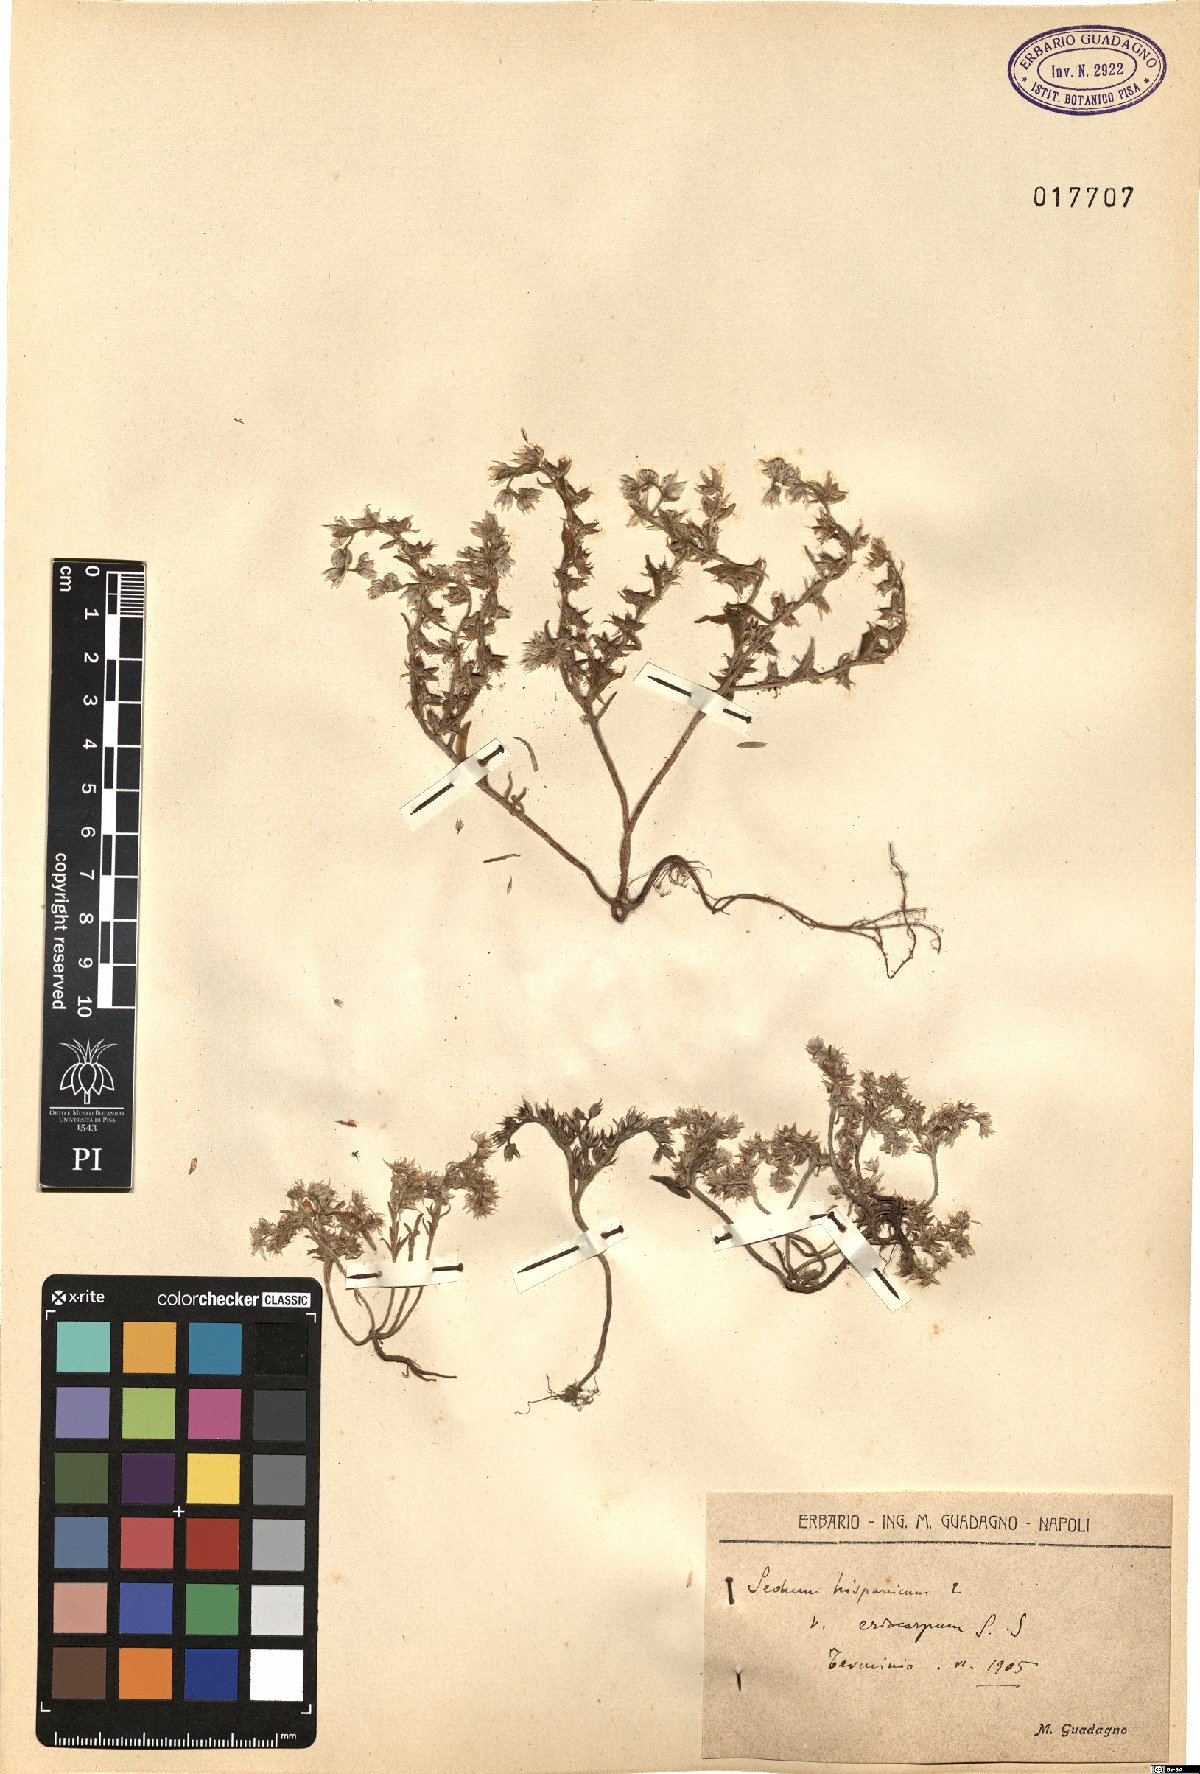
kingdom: Plantae
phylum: Tracheophyta
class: Magnoliopsida
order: Saxifragales
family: Crassulaceae
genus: Sedum
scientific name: Sedum hispanicum
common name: Spanish stonecrop
